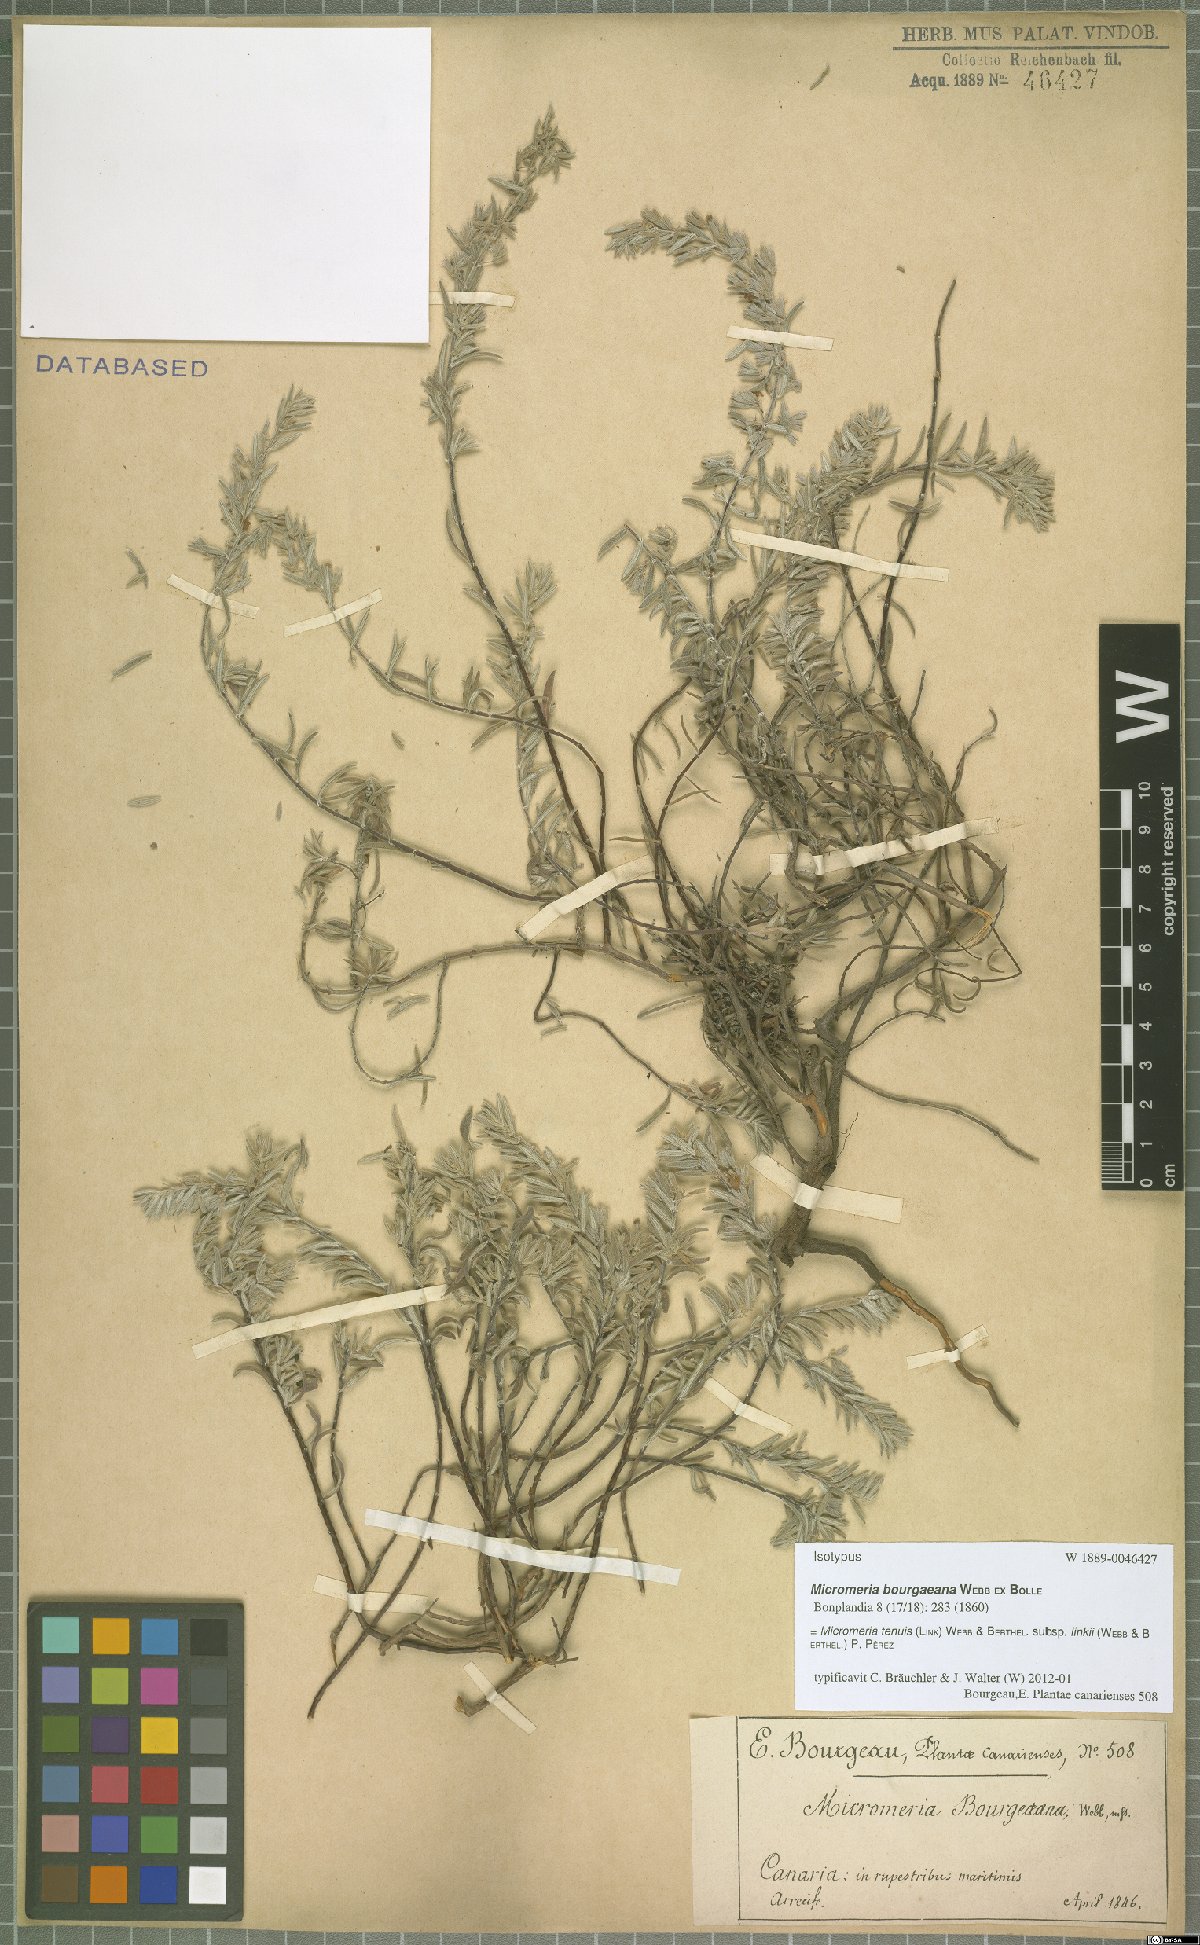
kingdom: Plantae
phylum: Tracheophyta
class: Magnoliopsida
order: Lamiales
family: Lamiaceae
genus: Micromeria
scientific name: Micromeria tenuis
